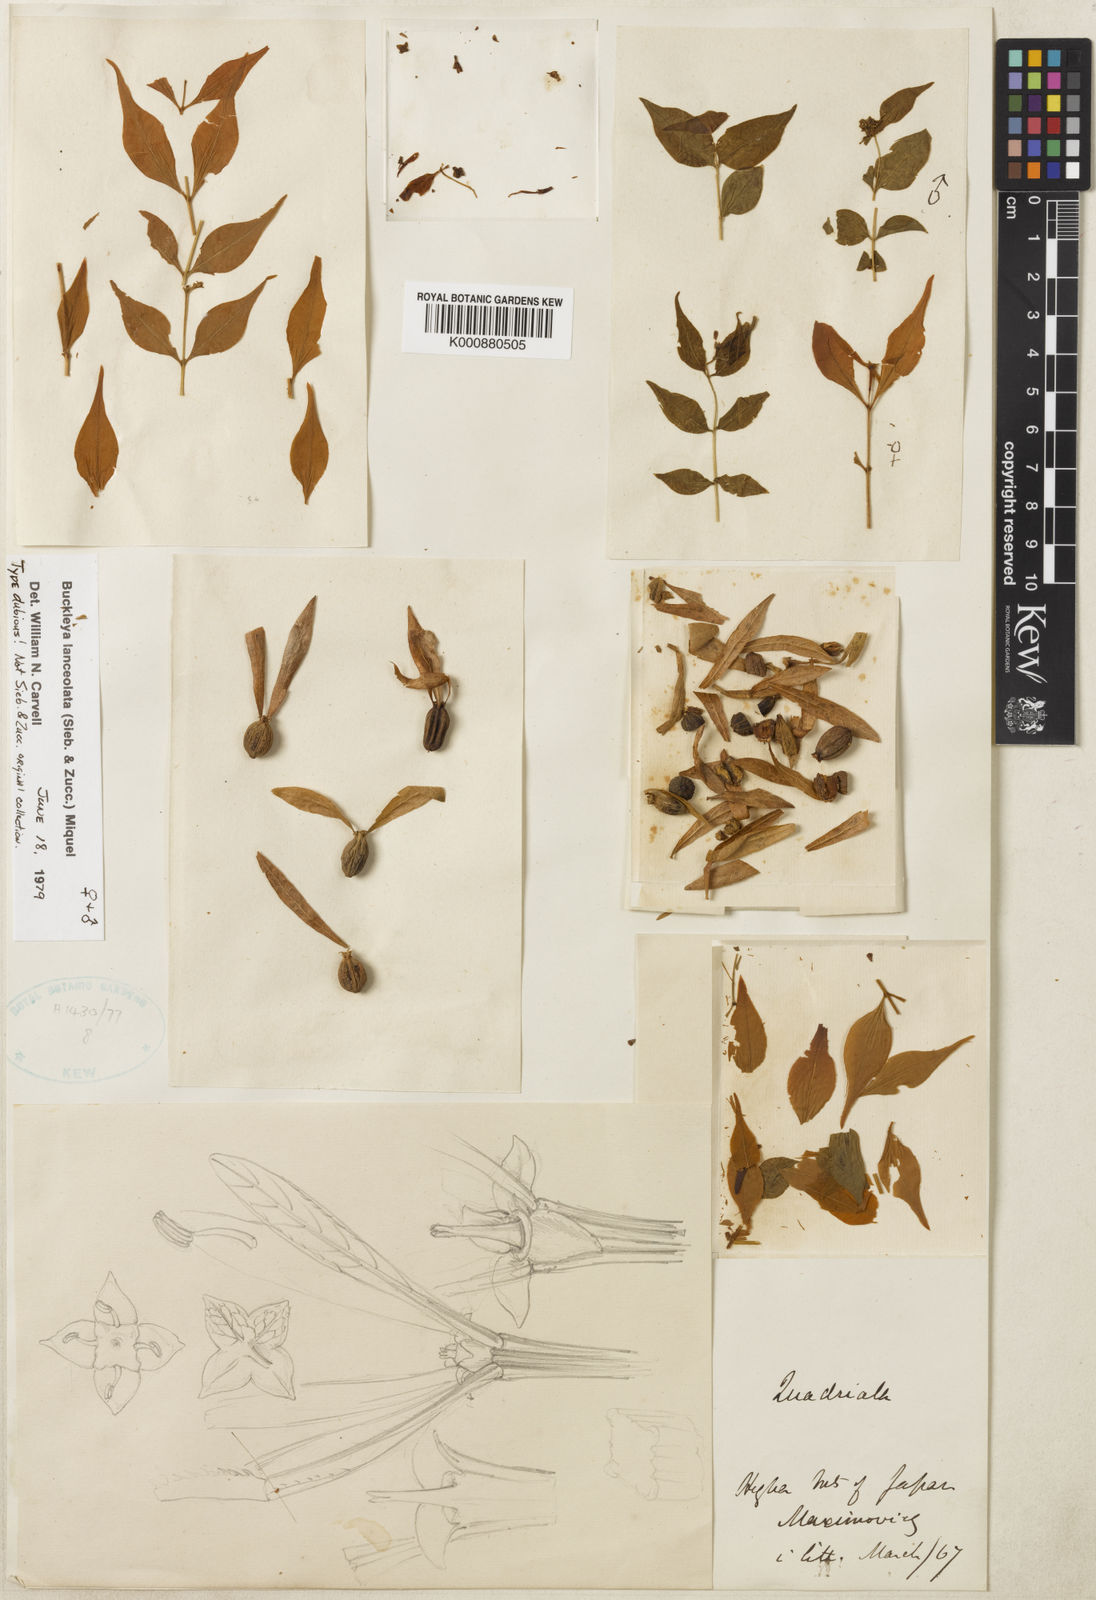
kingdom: Plantae
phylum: Tracheophyta
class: Magnoliopsida
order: Santalales
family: Thesiaceae
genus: Buckleya
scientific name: Buckleya lanceolata
